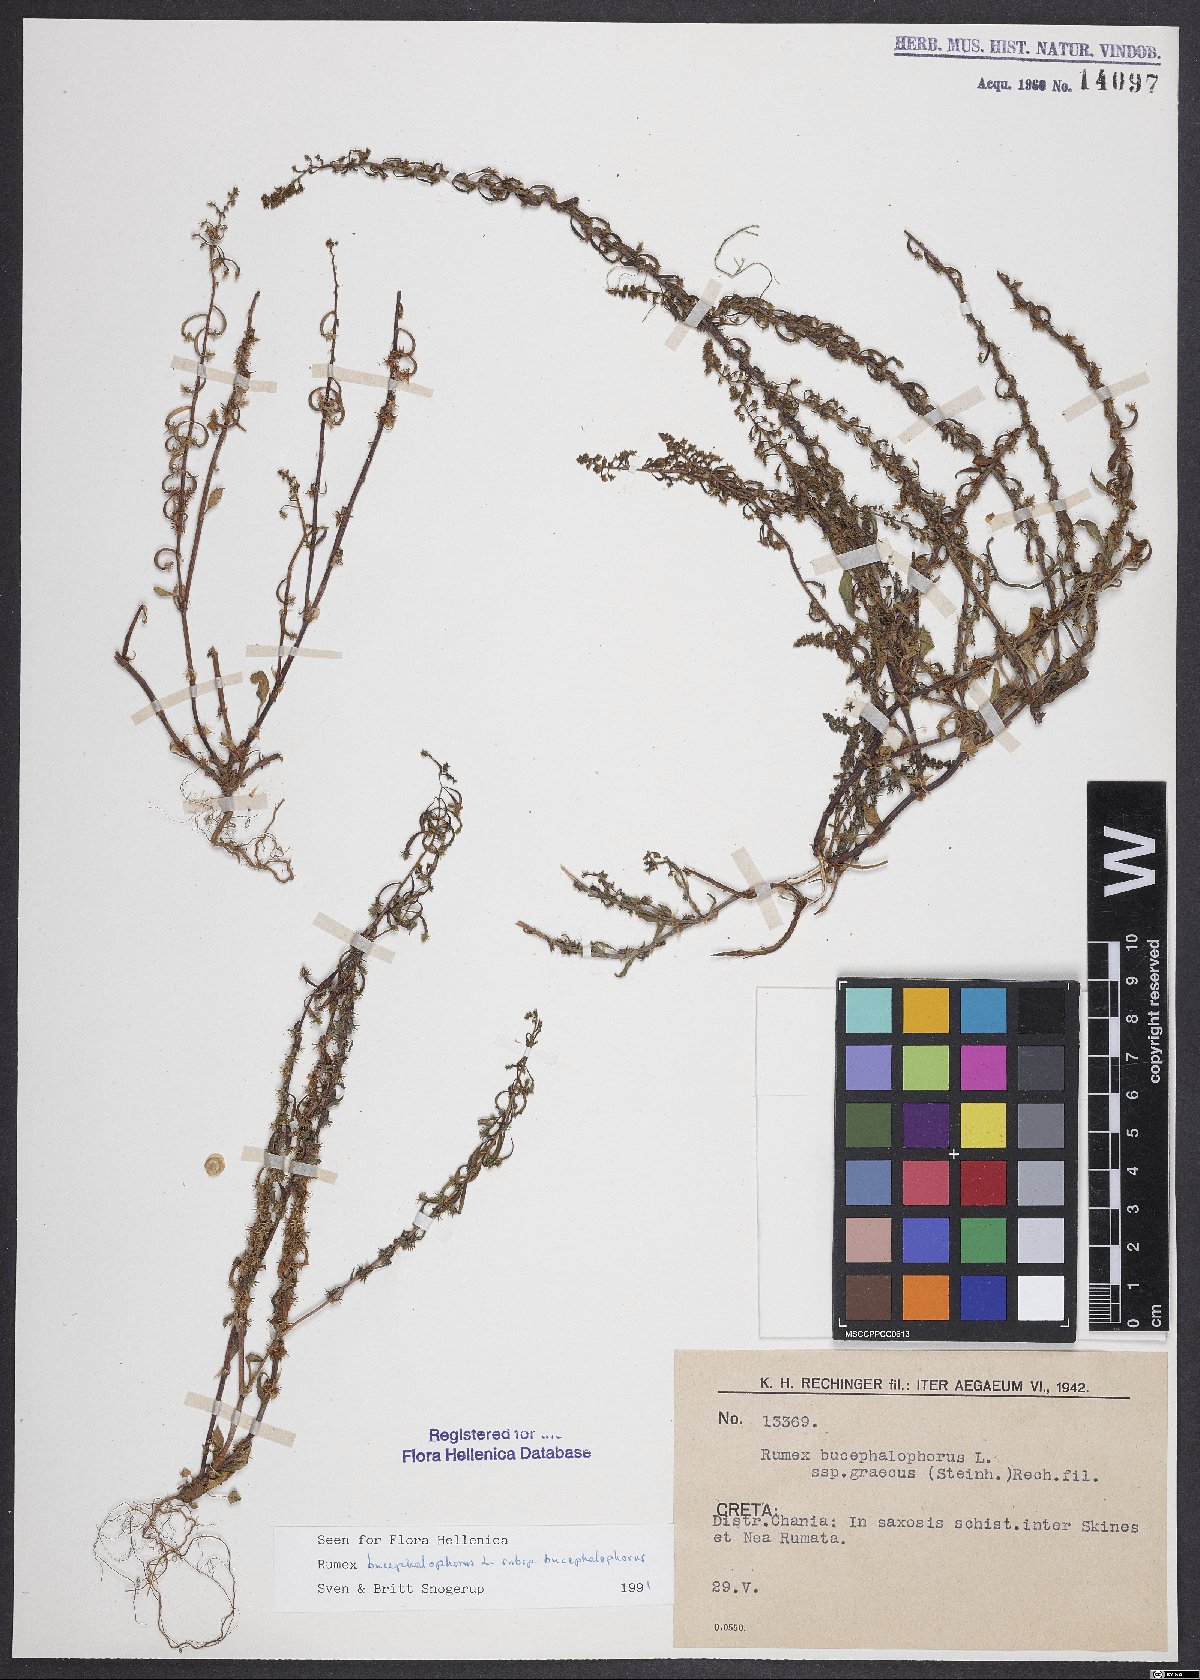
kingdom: Plantae
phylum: Tracheophyta
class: Magnoliopsida
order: Caryophyllales
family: Polygonaceae
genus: Rumex
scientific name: Rumex bucephalophorus
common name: Red dock
